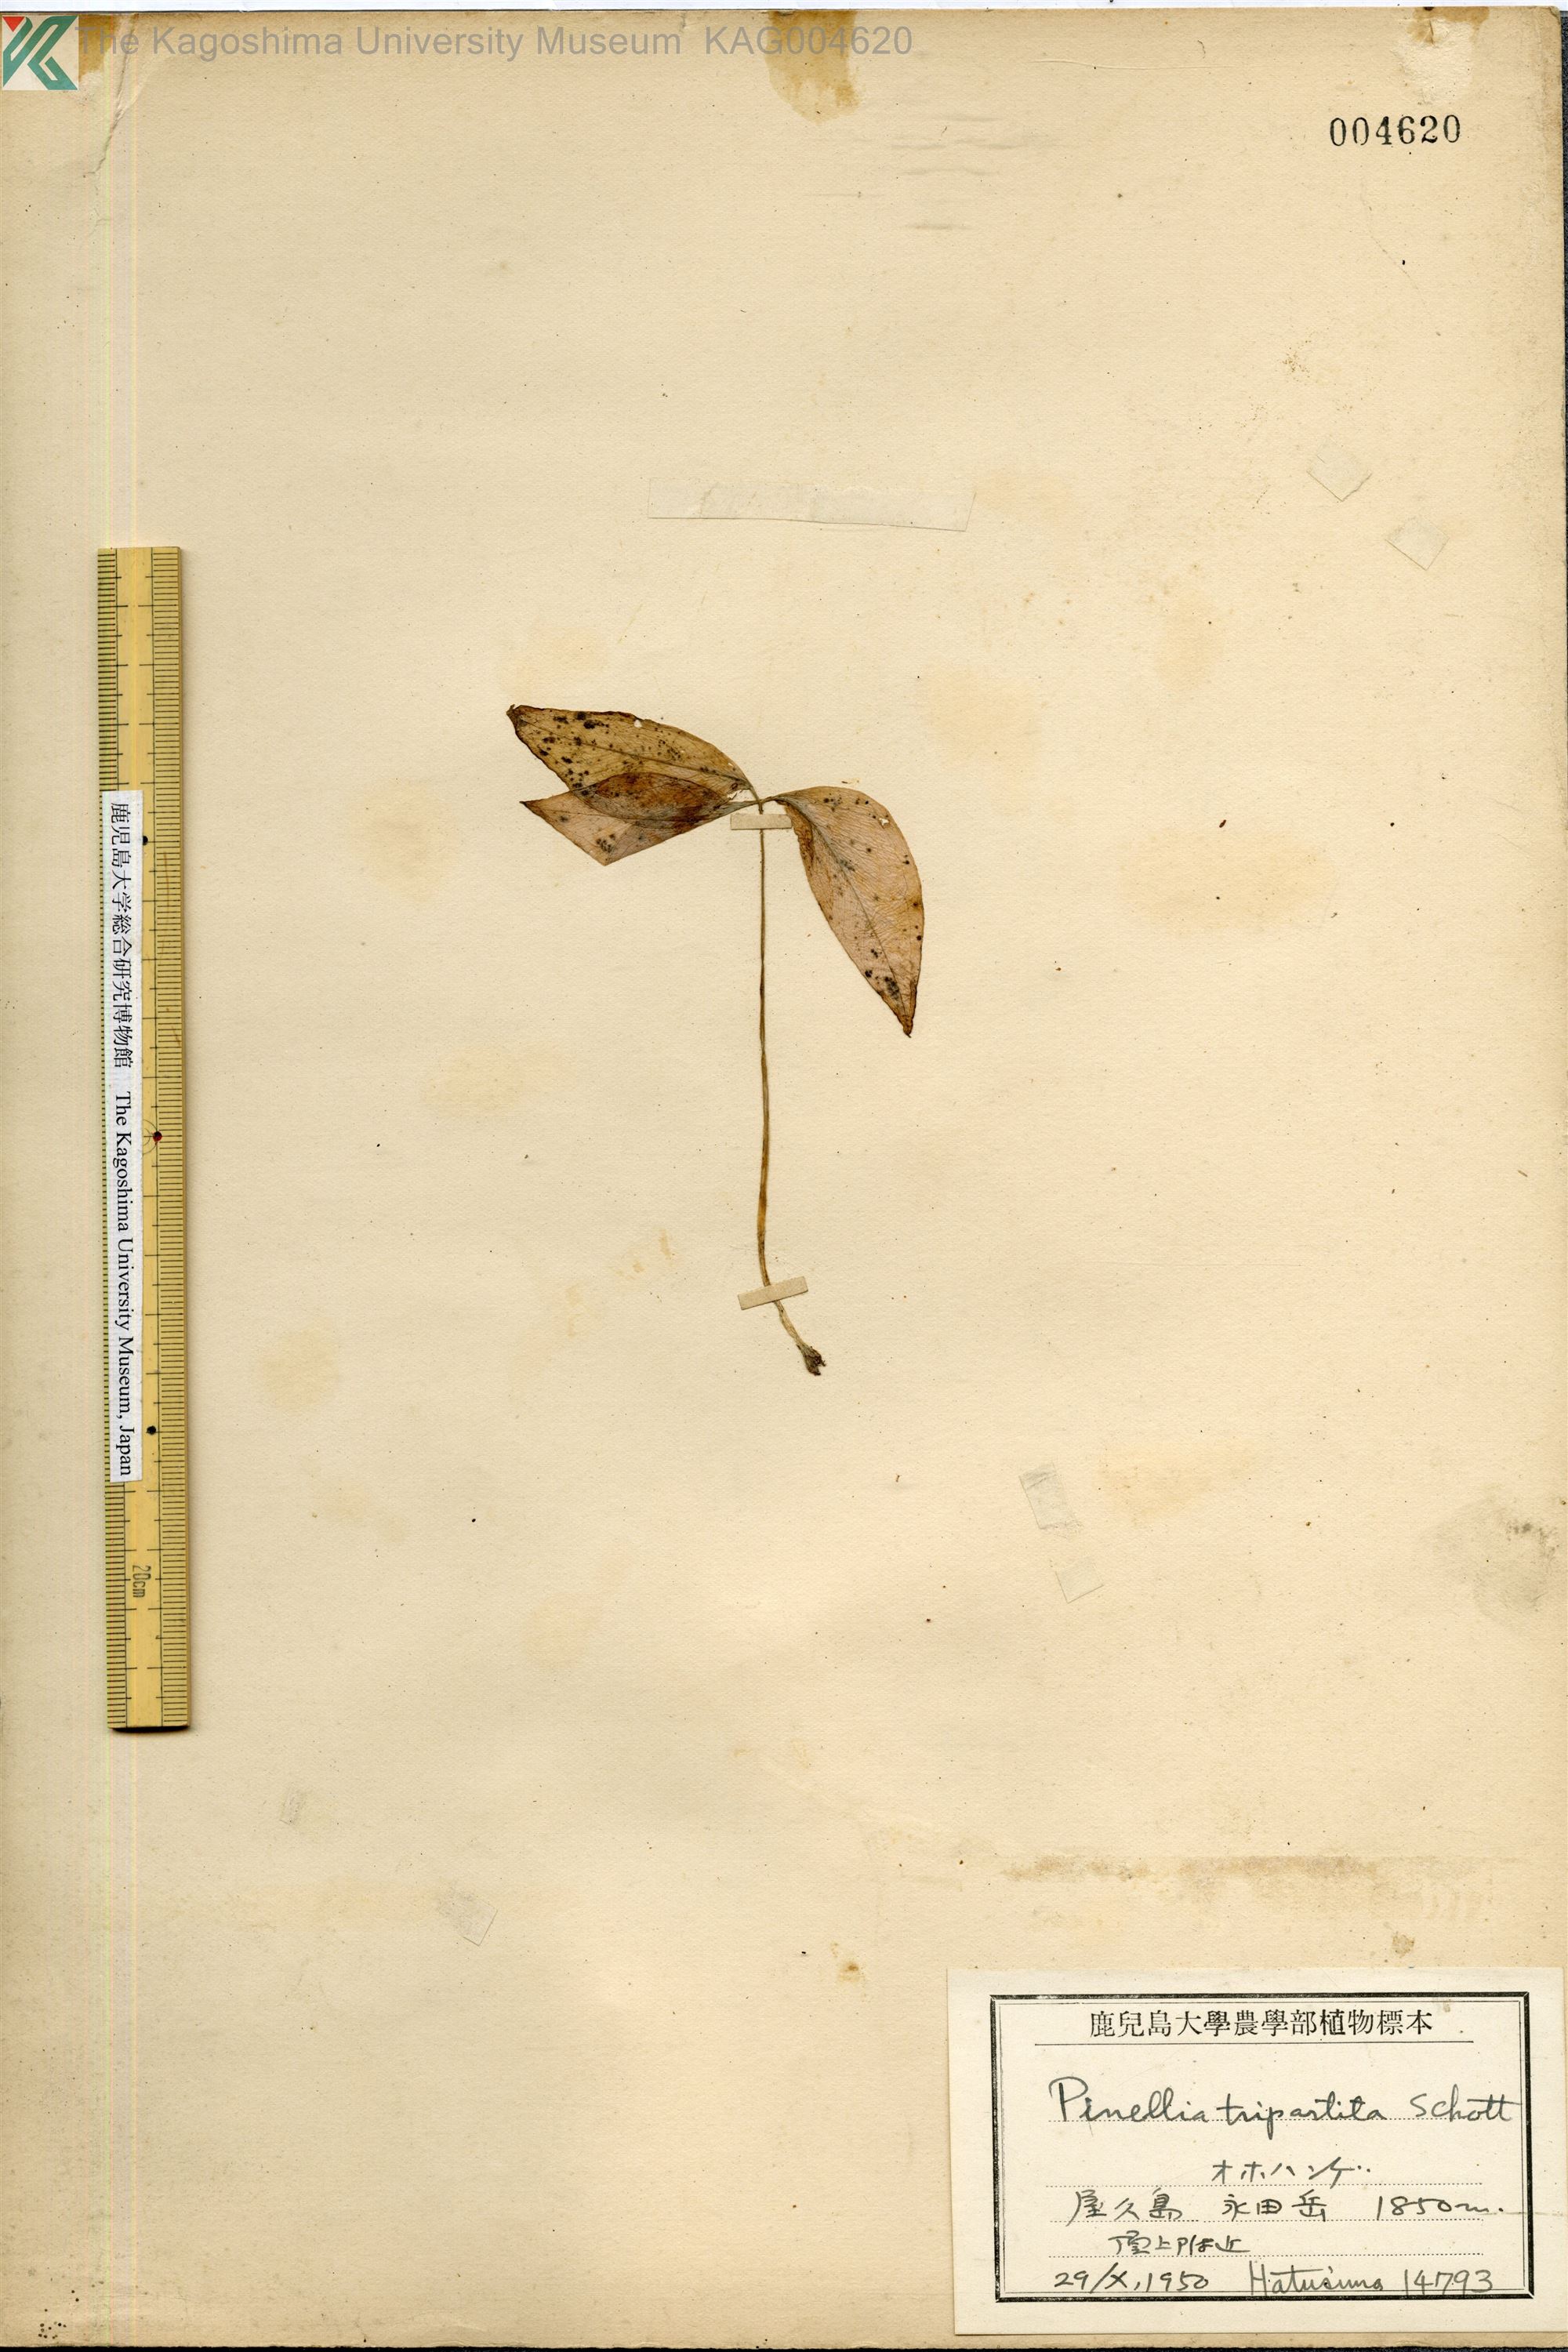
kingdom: Plantae
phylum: Tracheophyta
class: Liliopsida
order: Alismatales
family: Araceae
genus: Pinellia
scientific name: Pinellia tripartita
